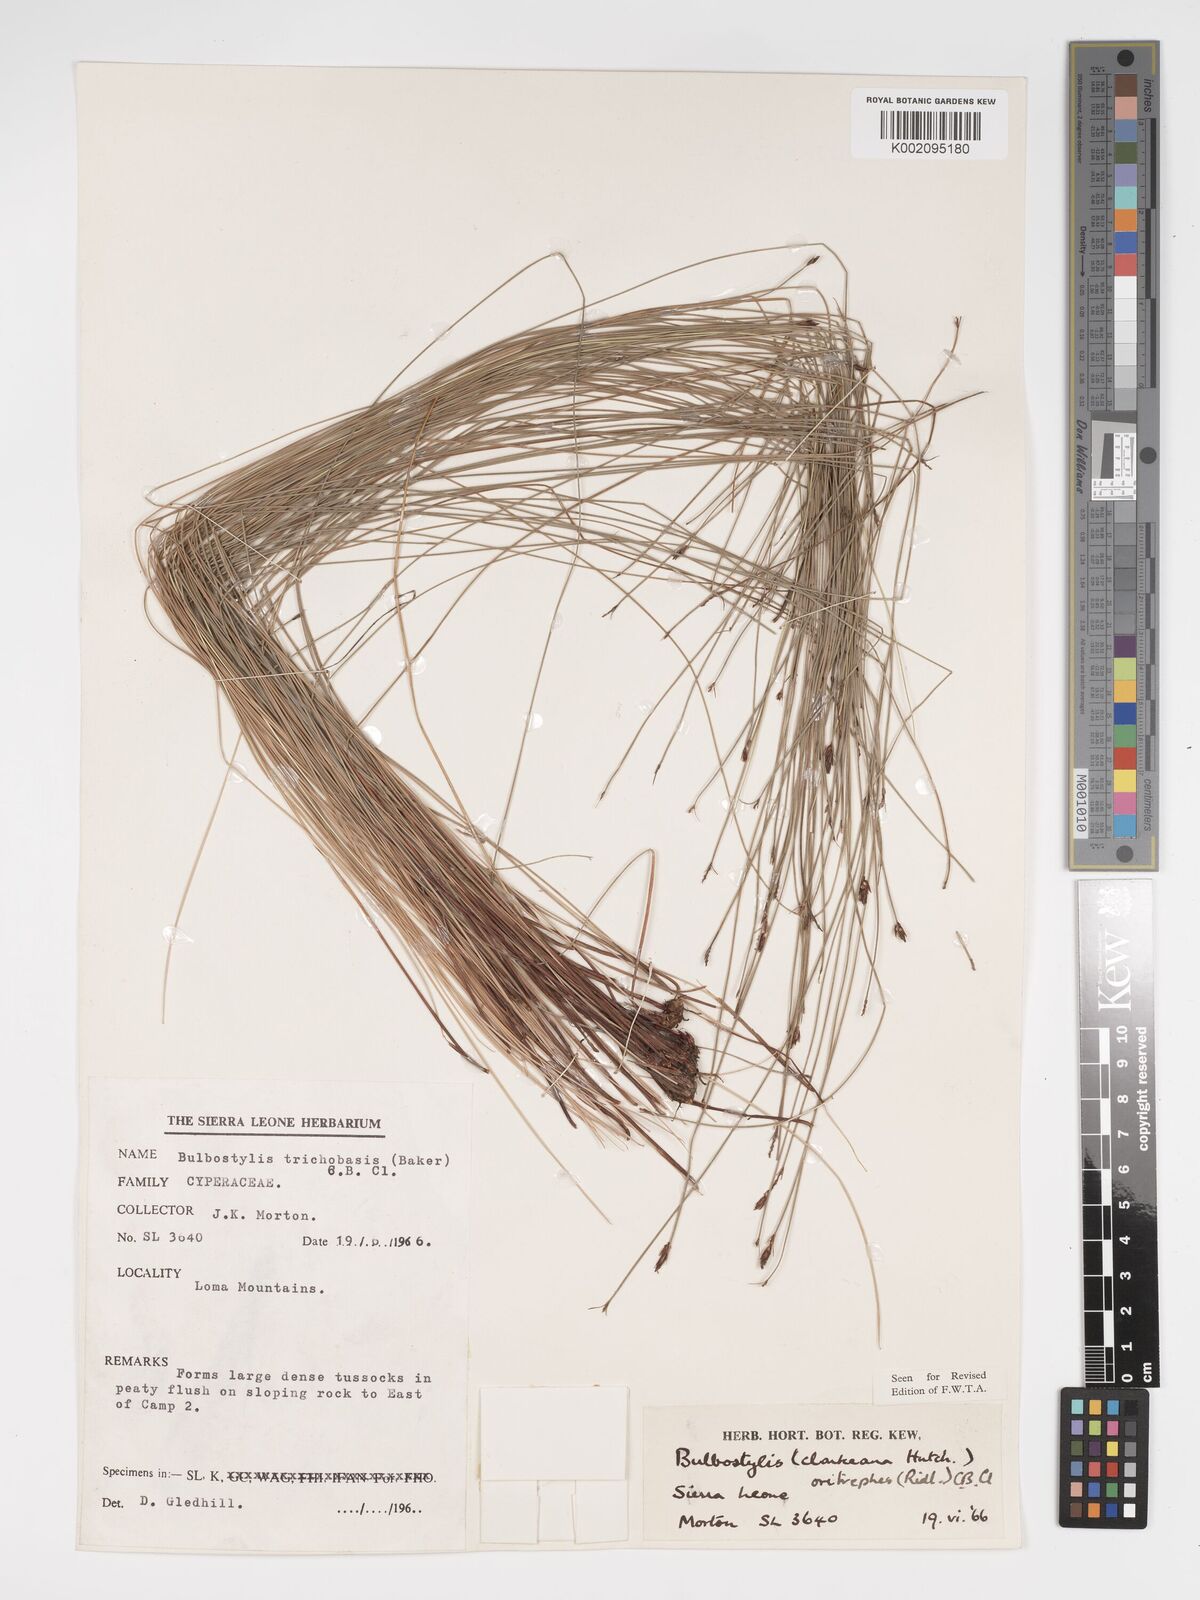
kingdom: Plantae
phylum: Tracheophyta
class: Liliopsida
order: Poales
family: Cyperaceae
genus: Bulbostylis
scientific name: Bulbostylis oritrephes
